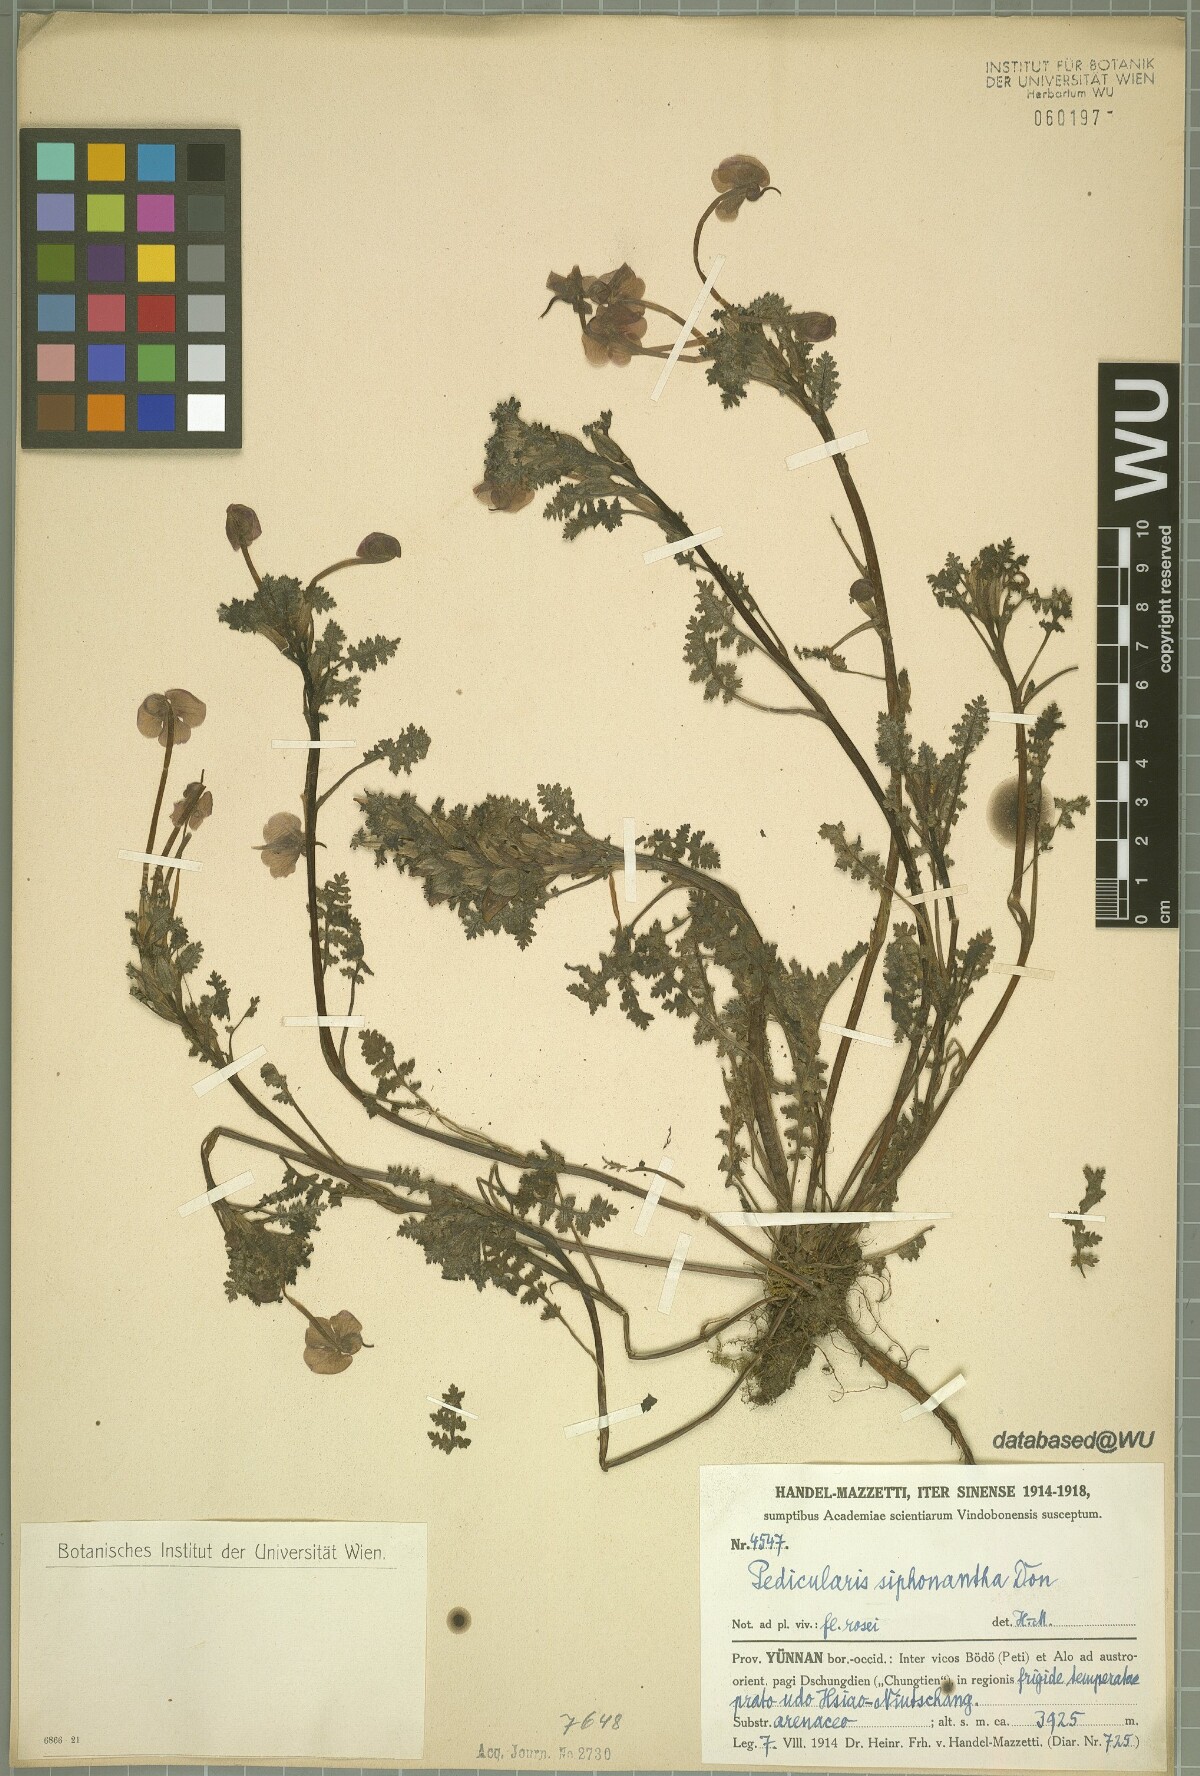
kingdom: Plantae
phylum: Tracheophyta
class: Magnoliopsida
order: Lamiales
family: Orobanchaceae
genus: Pedicularis
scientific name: Pedicularis siphonantha
